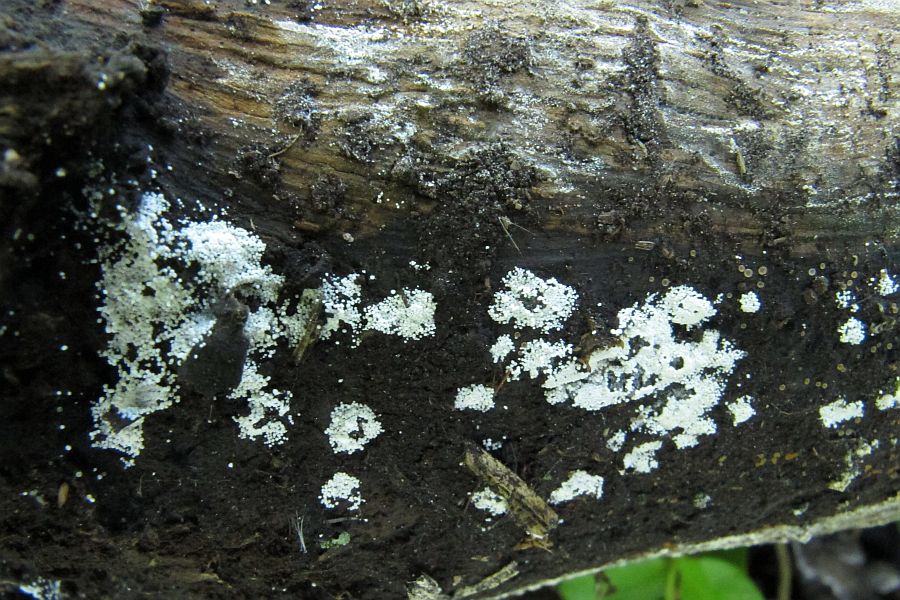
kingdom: Fungi
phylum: Basidiomycota
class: Agaricomycetes
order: Polyporales
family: Meruliaceae
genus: Bulbillomyces
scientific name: Bulbillomyces farinosus
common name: æg-kalkskind
